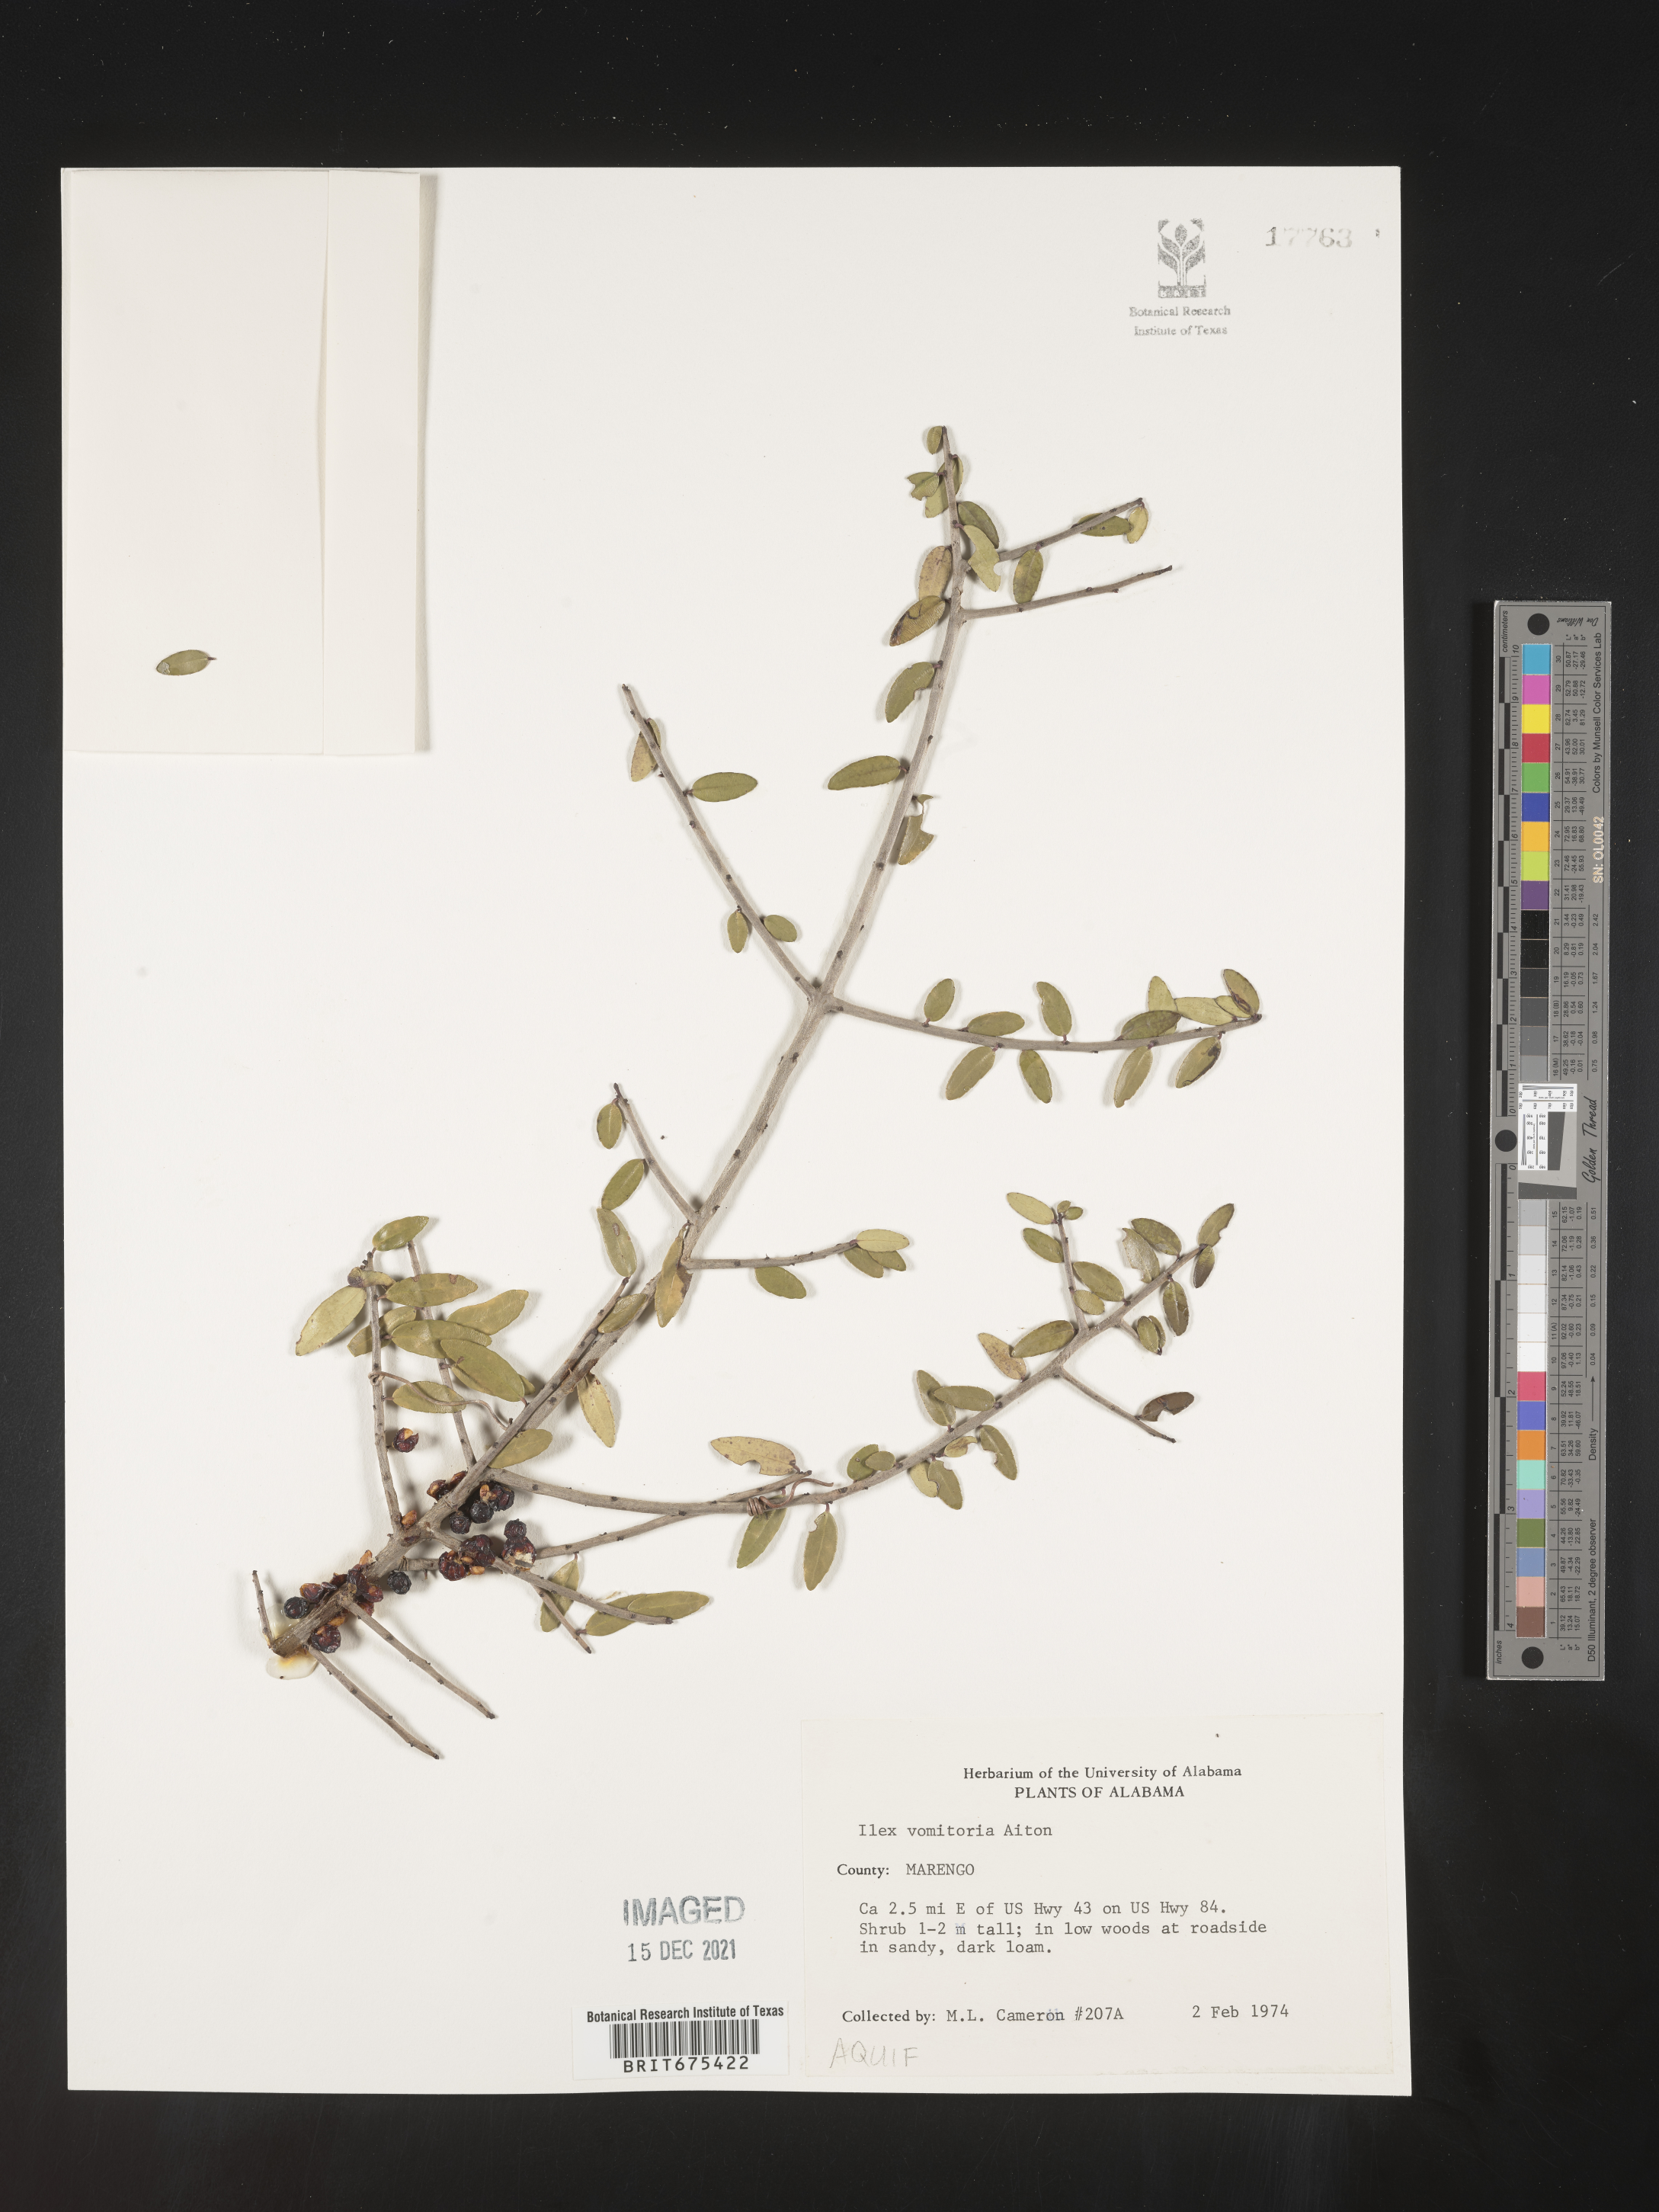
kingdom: Plantae
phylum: Tracheophyta
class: Magnoliopsida
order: Aquifoliales
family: Aquifoliaceae
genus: Ilex
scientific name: Ilex vomitoria
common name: Yaupon holly
